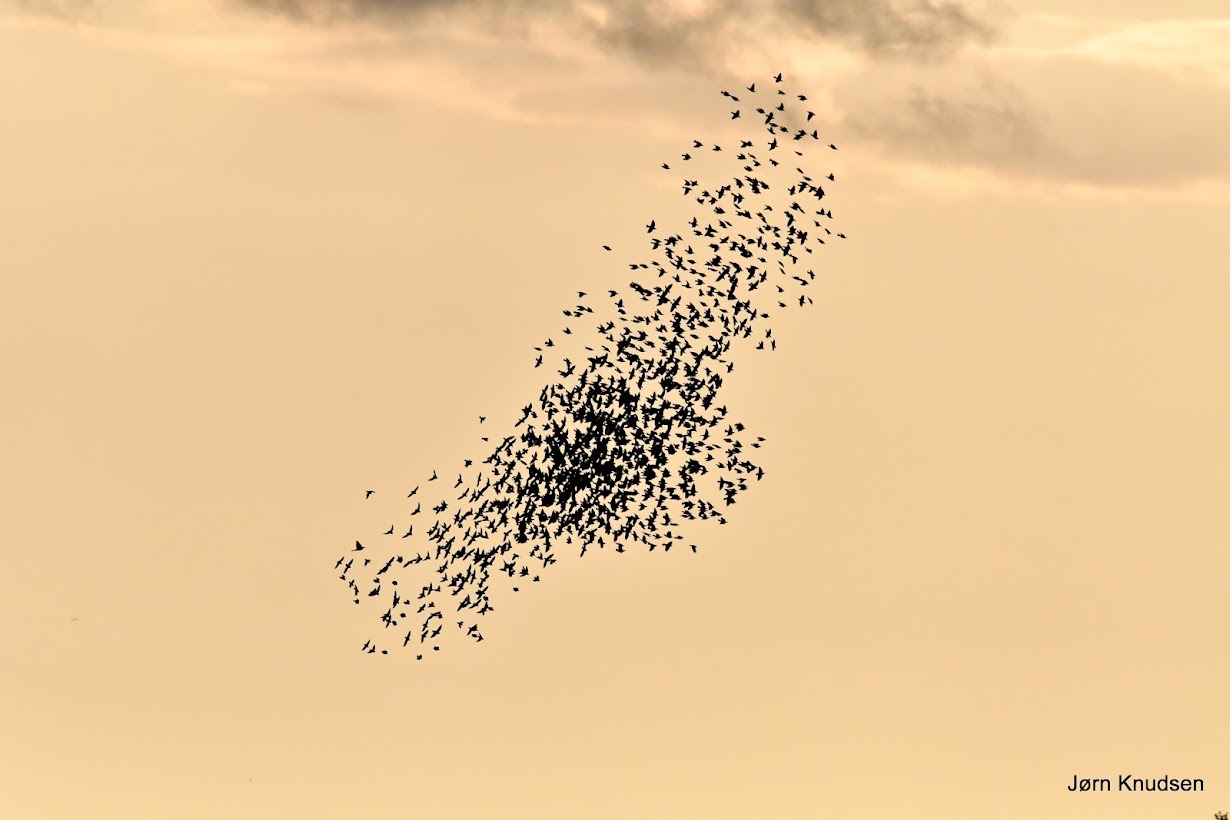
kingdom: Animalia
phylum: Chordata
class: Aves
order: Passeriformes
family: Sturnidae
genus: Sturnus
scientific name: Sturnus vulgaris
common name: Stær
